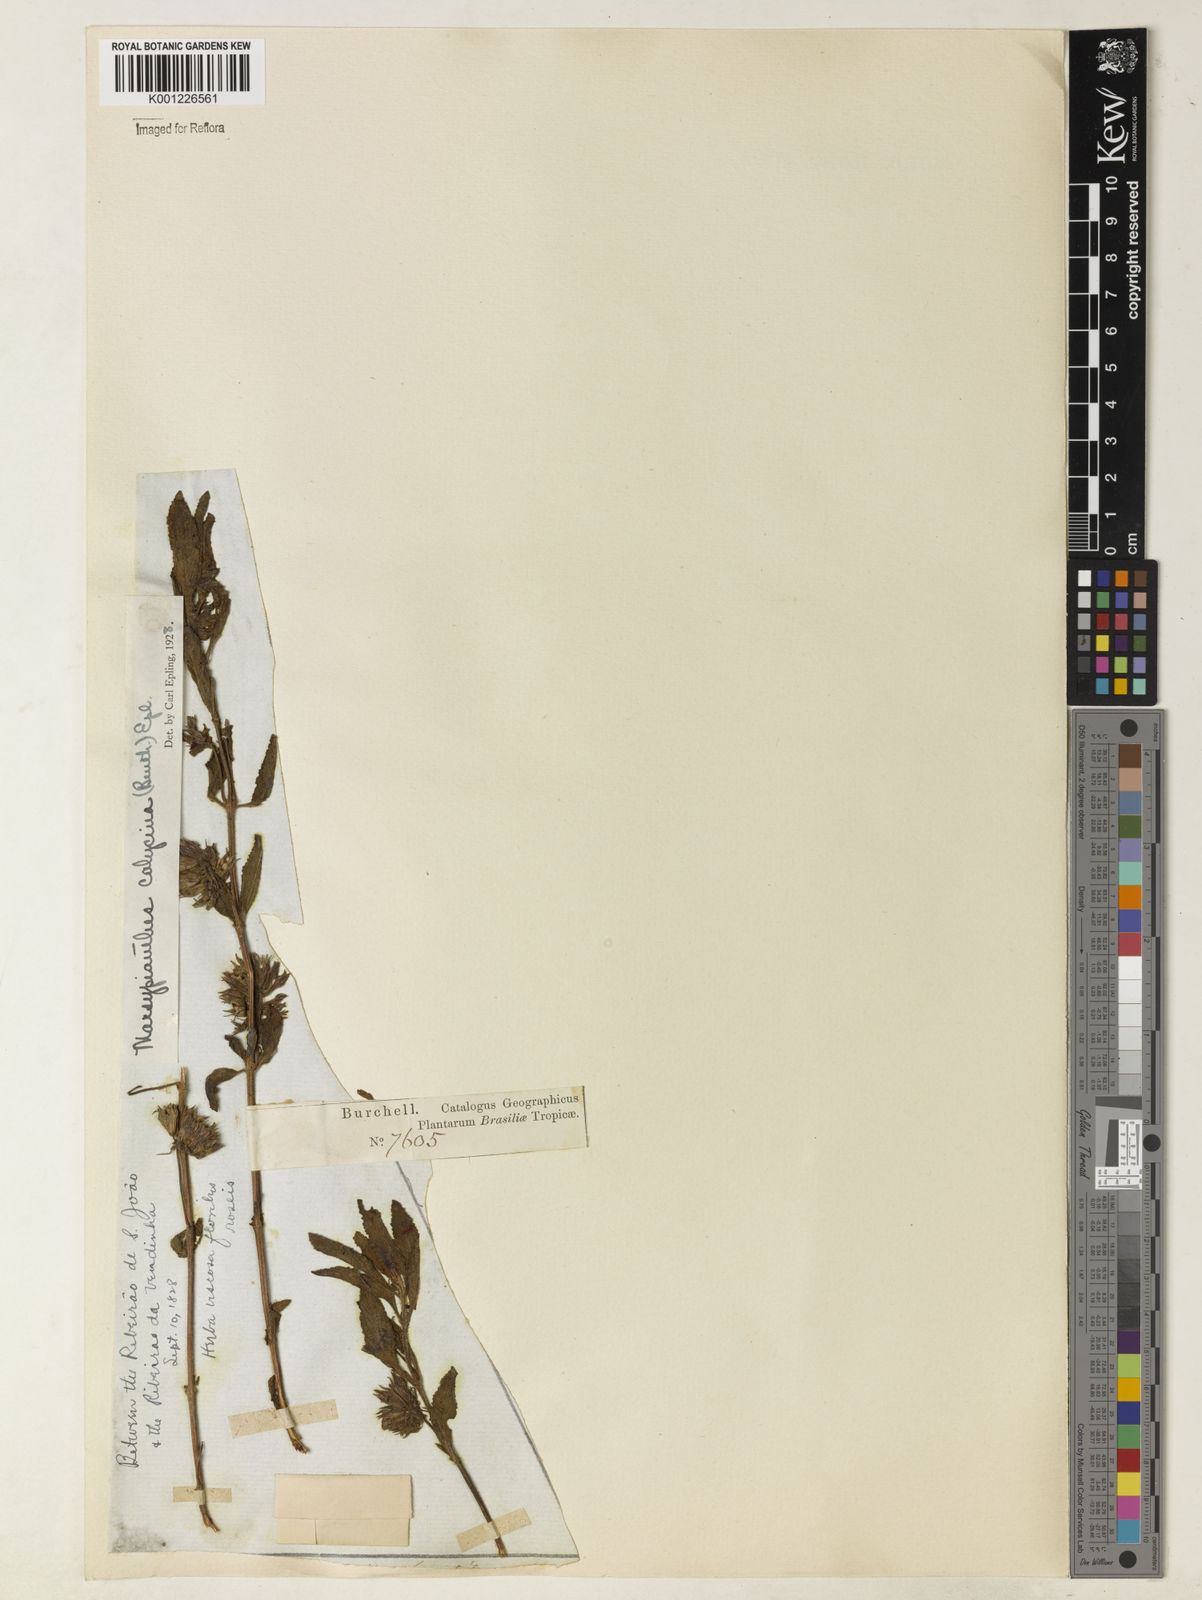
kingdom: Plantae
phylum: Tracheophyta
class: Magnoliopsida
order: Lamiales
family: Lamiaceae
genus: Marsypianthes
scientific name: Marsypianthes burchellii
